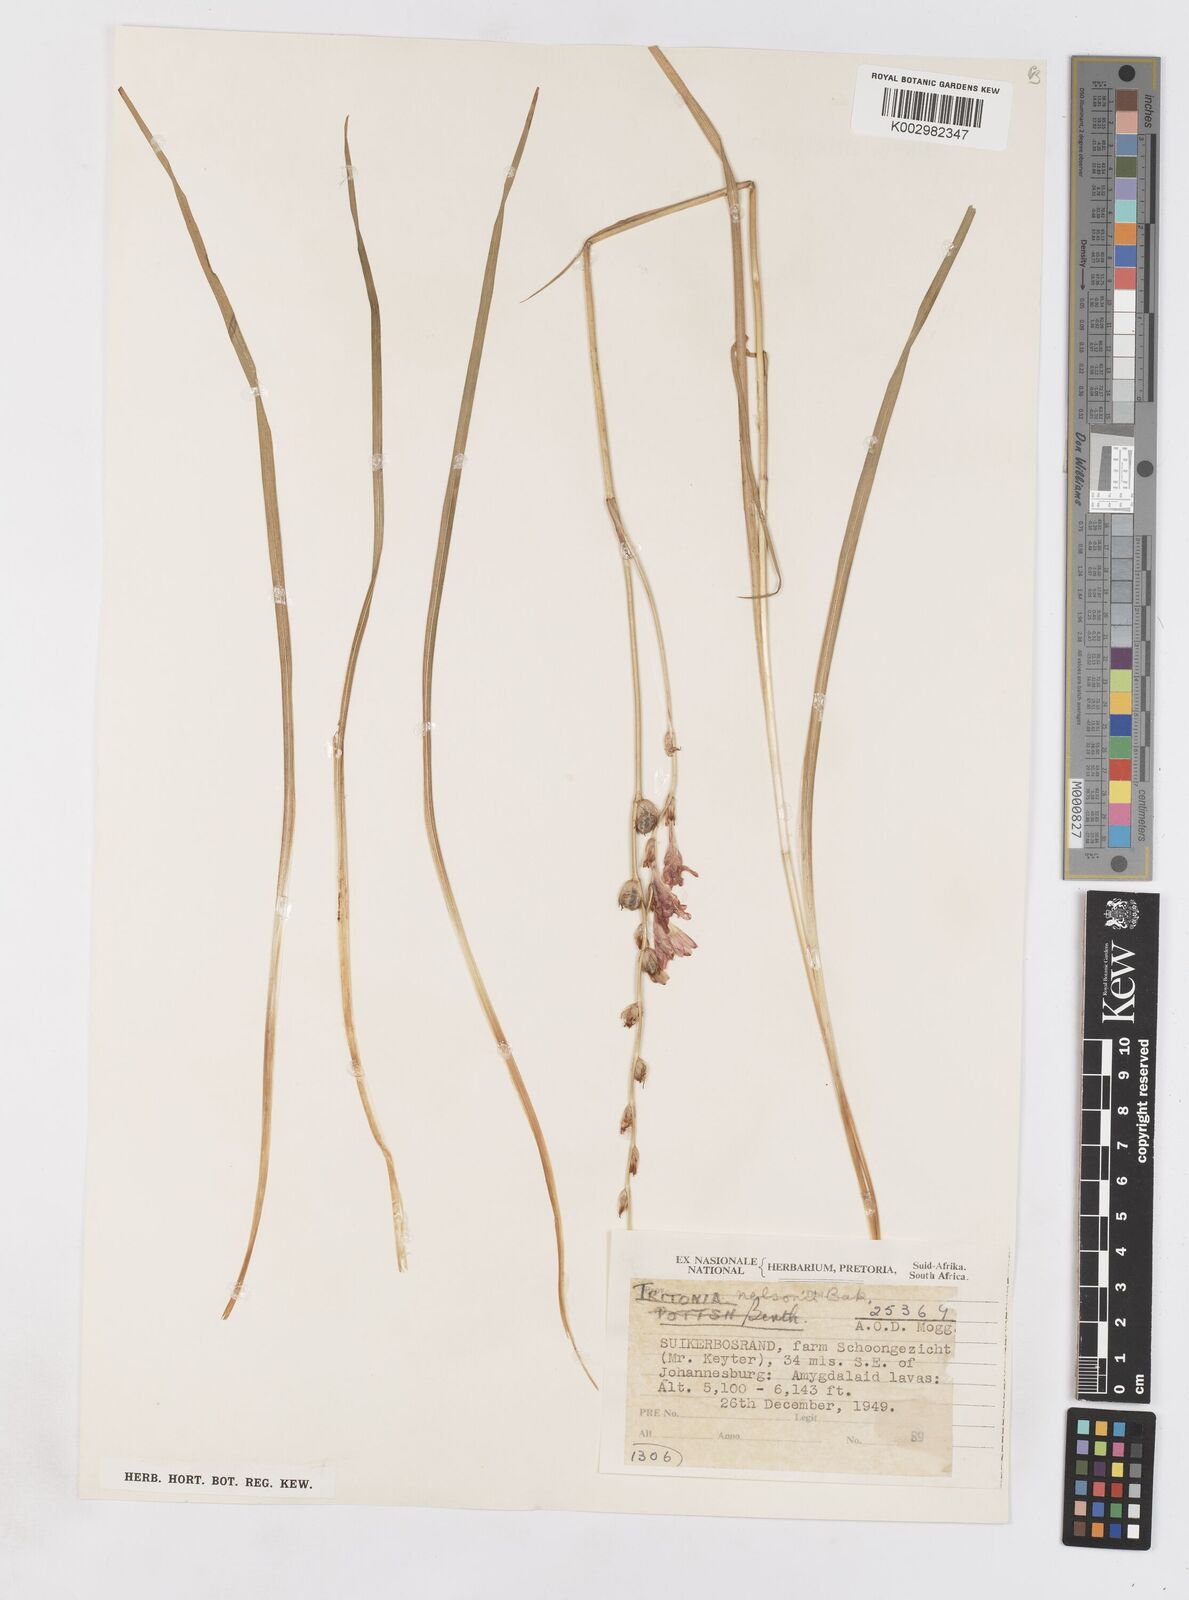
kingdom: Plantae
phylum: Tracheophyta
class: Liliopsida
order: Asparagales
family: Iridaceae
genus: Tritonia
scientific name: Tritonia nelsonii
